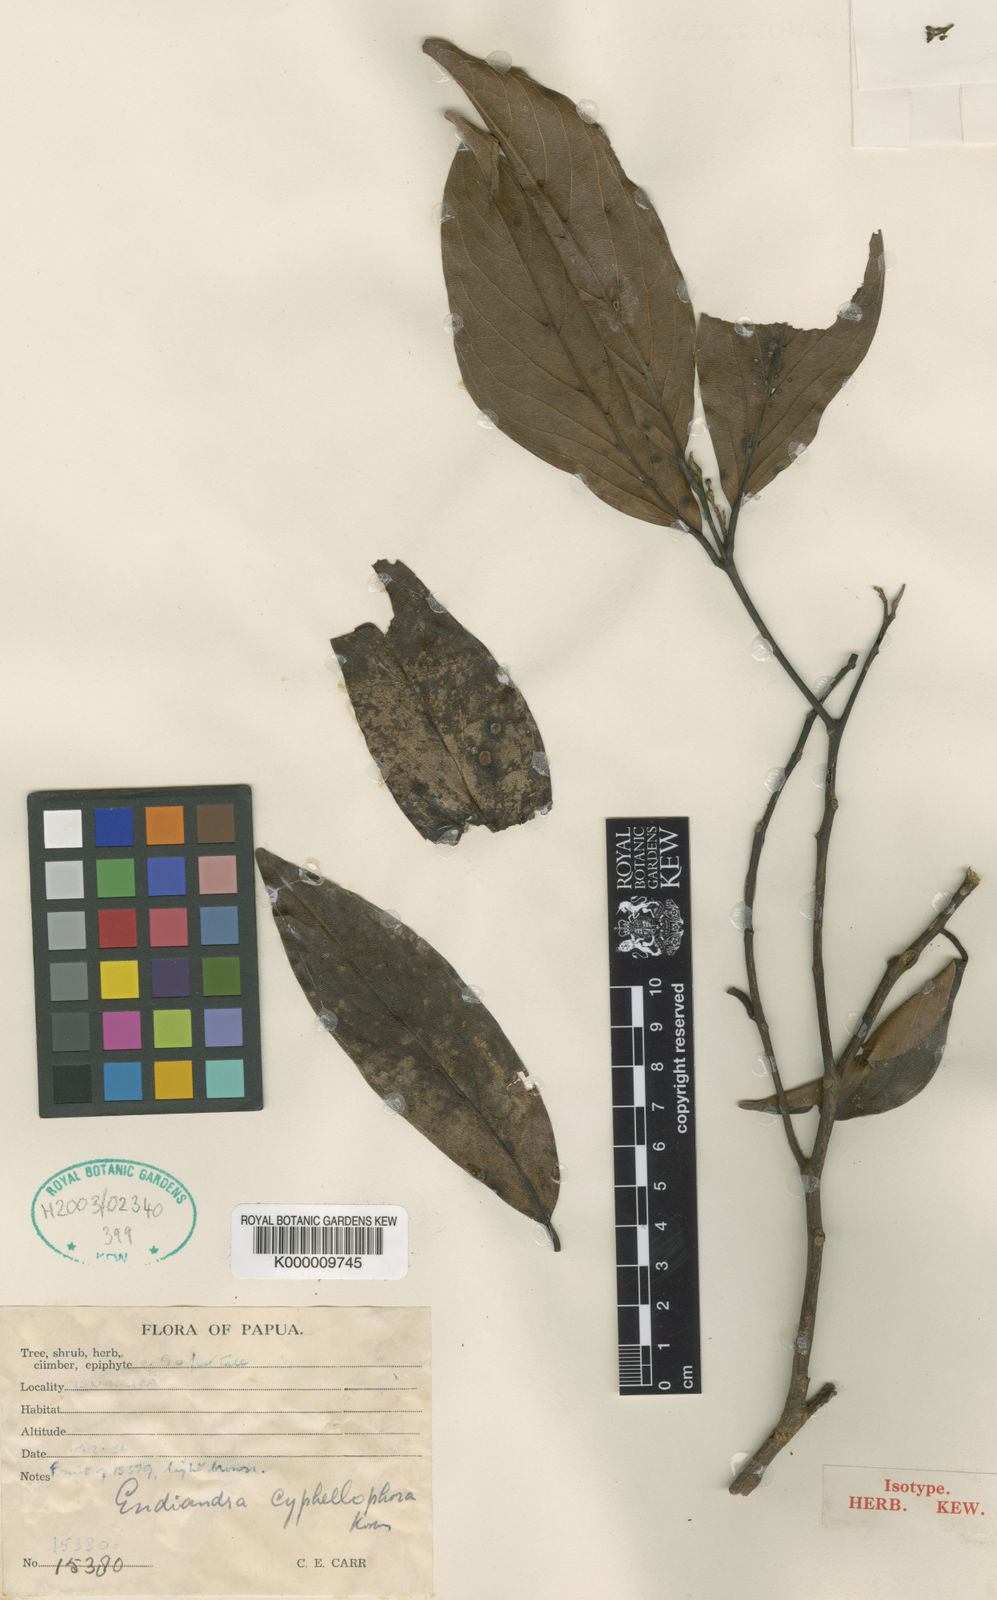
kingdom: Plantae
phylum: Tracheophyta
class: Magnoliopsida
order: Laurales
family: Lauraceae
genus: Endiandra
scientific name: Endiandra cyphellophora
